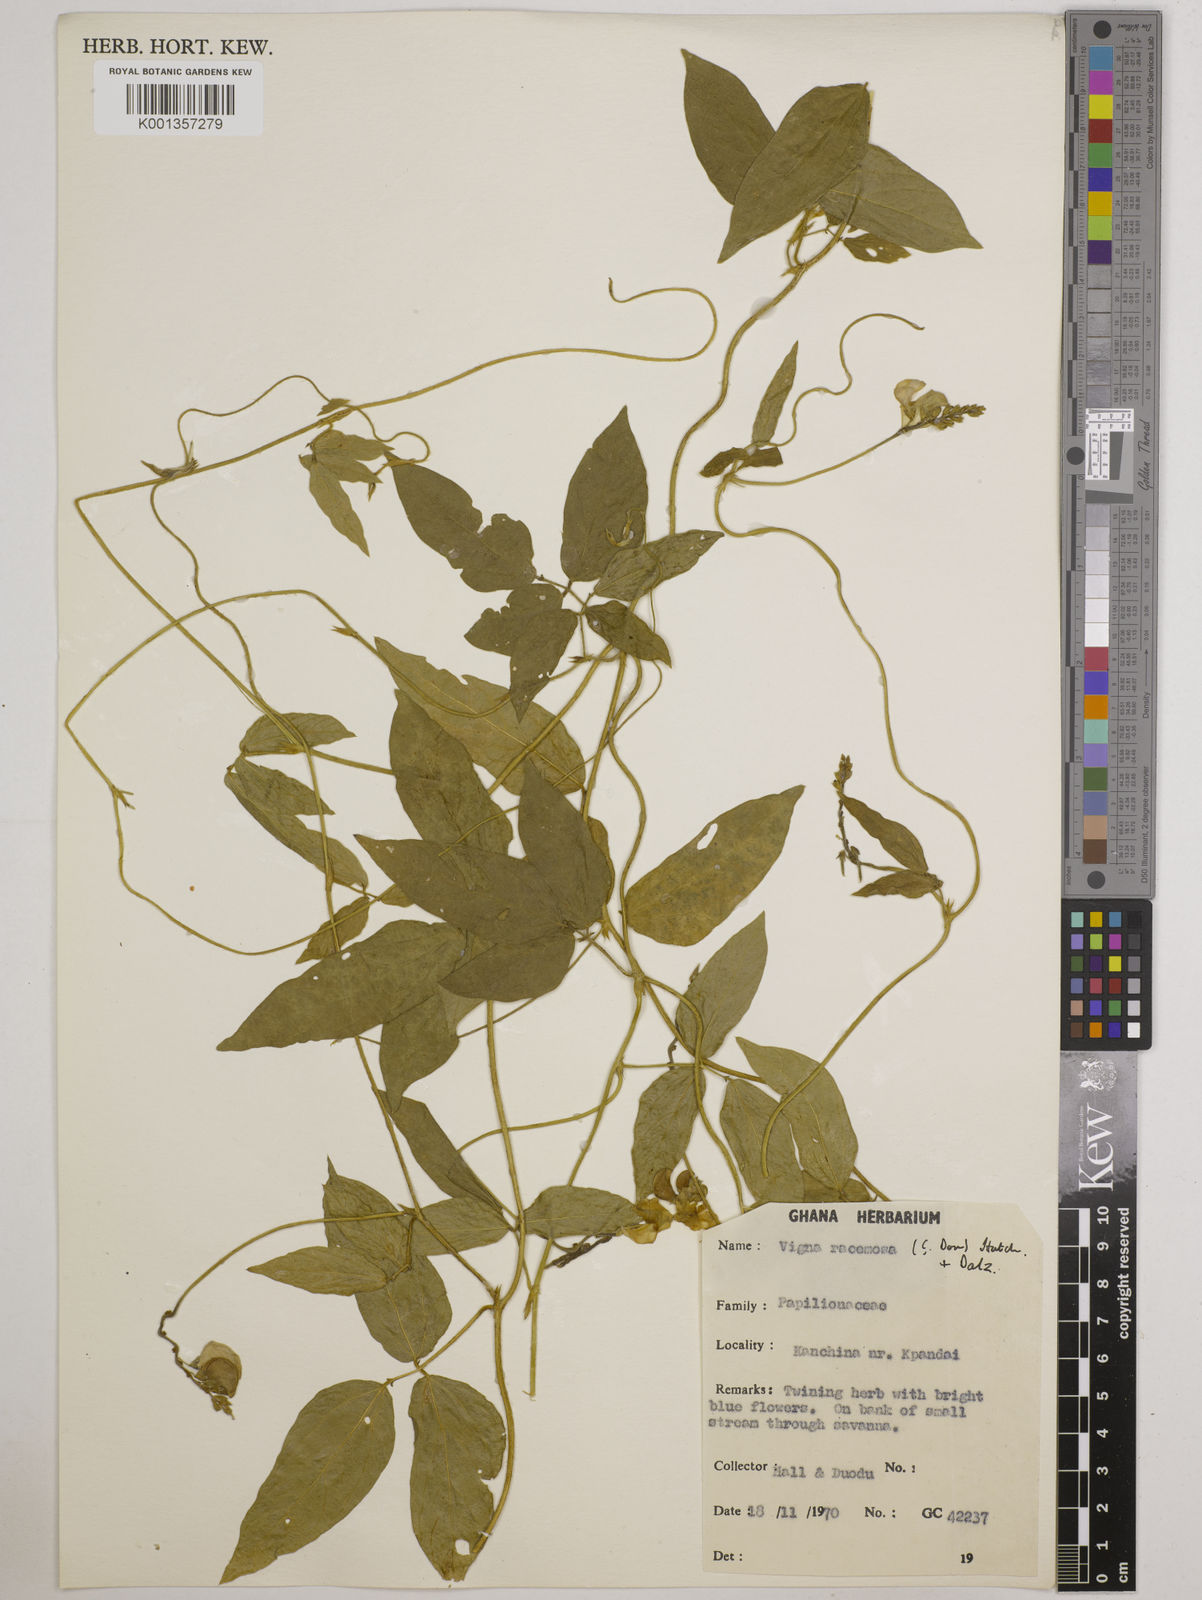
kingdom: Plantae
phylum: Tracheophyta
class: Magnoliopsida
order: Fabales
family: Fabaceae
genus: Vigna
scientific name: Vigna racemosa
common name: Beans not eaten
